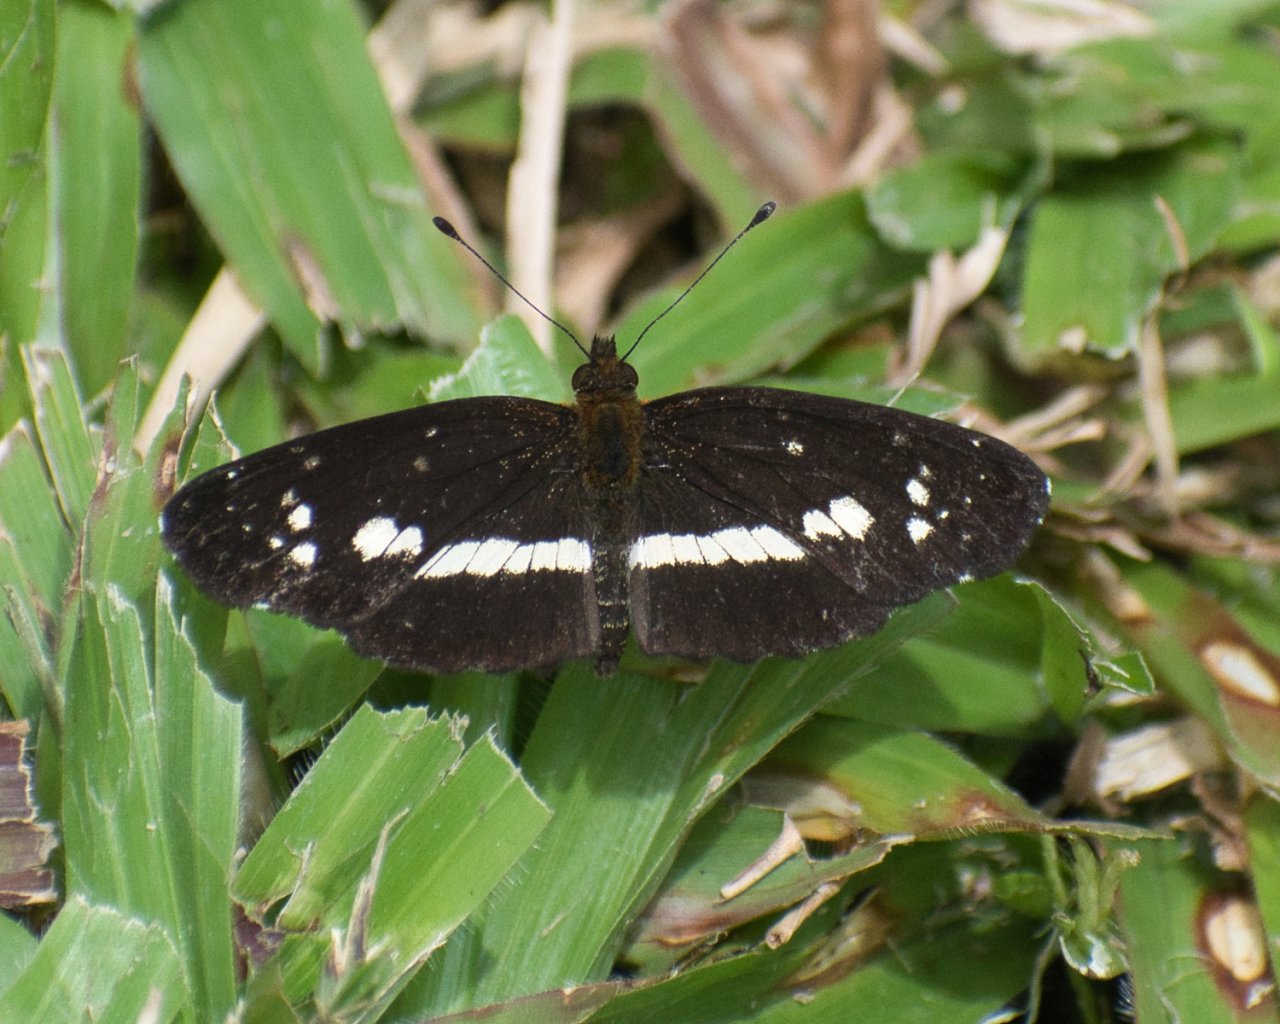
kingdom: Animalia
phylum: Arthropoda
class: Insecta
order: Lepidoptera
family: Nymphalidae
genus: Castilia
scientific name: Castilia griseobasalis
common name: Gray-based Crescent
